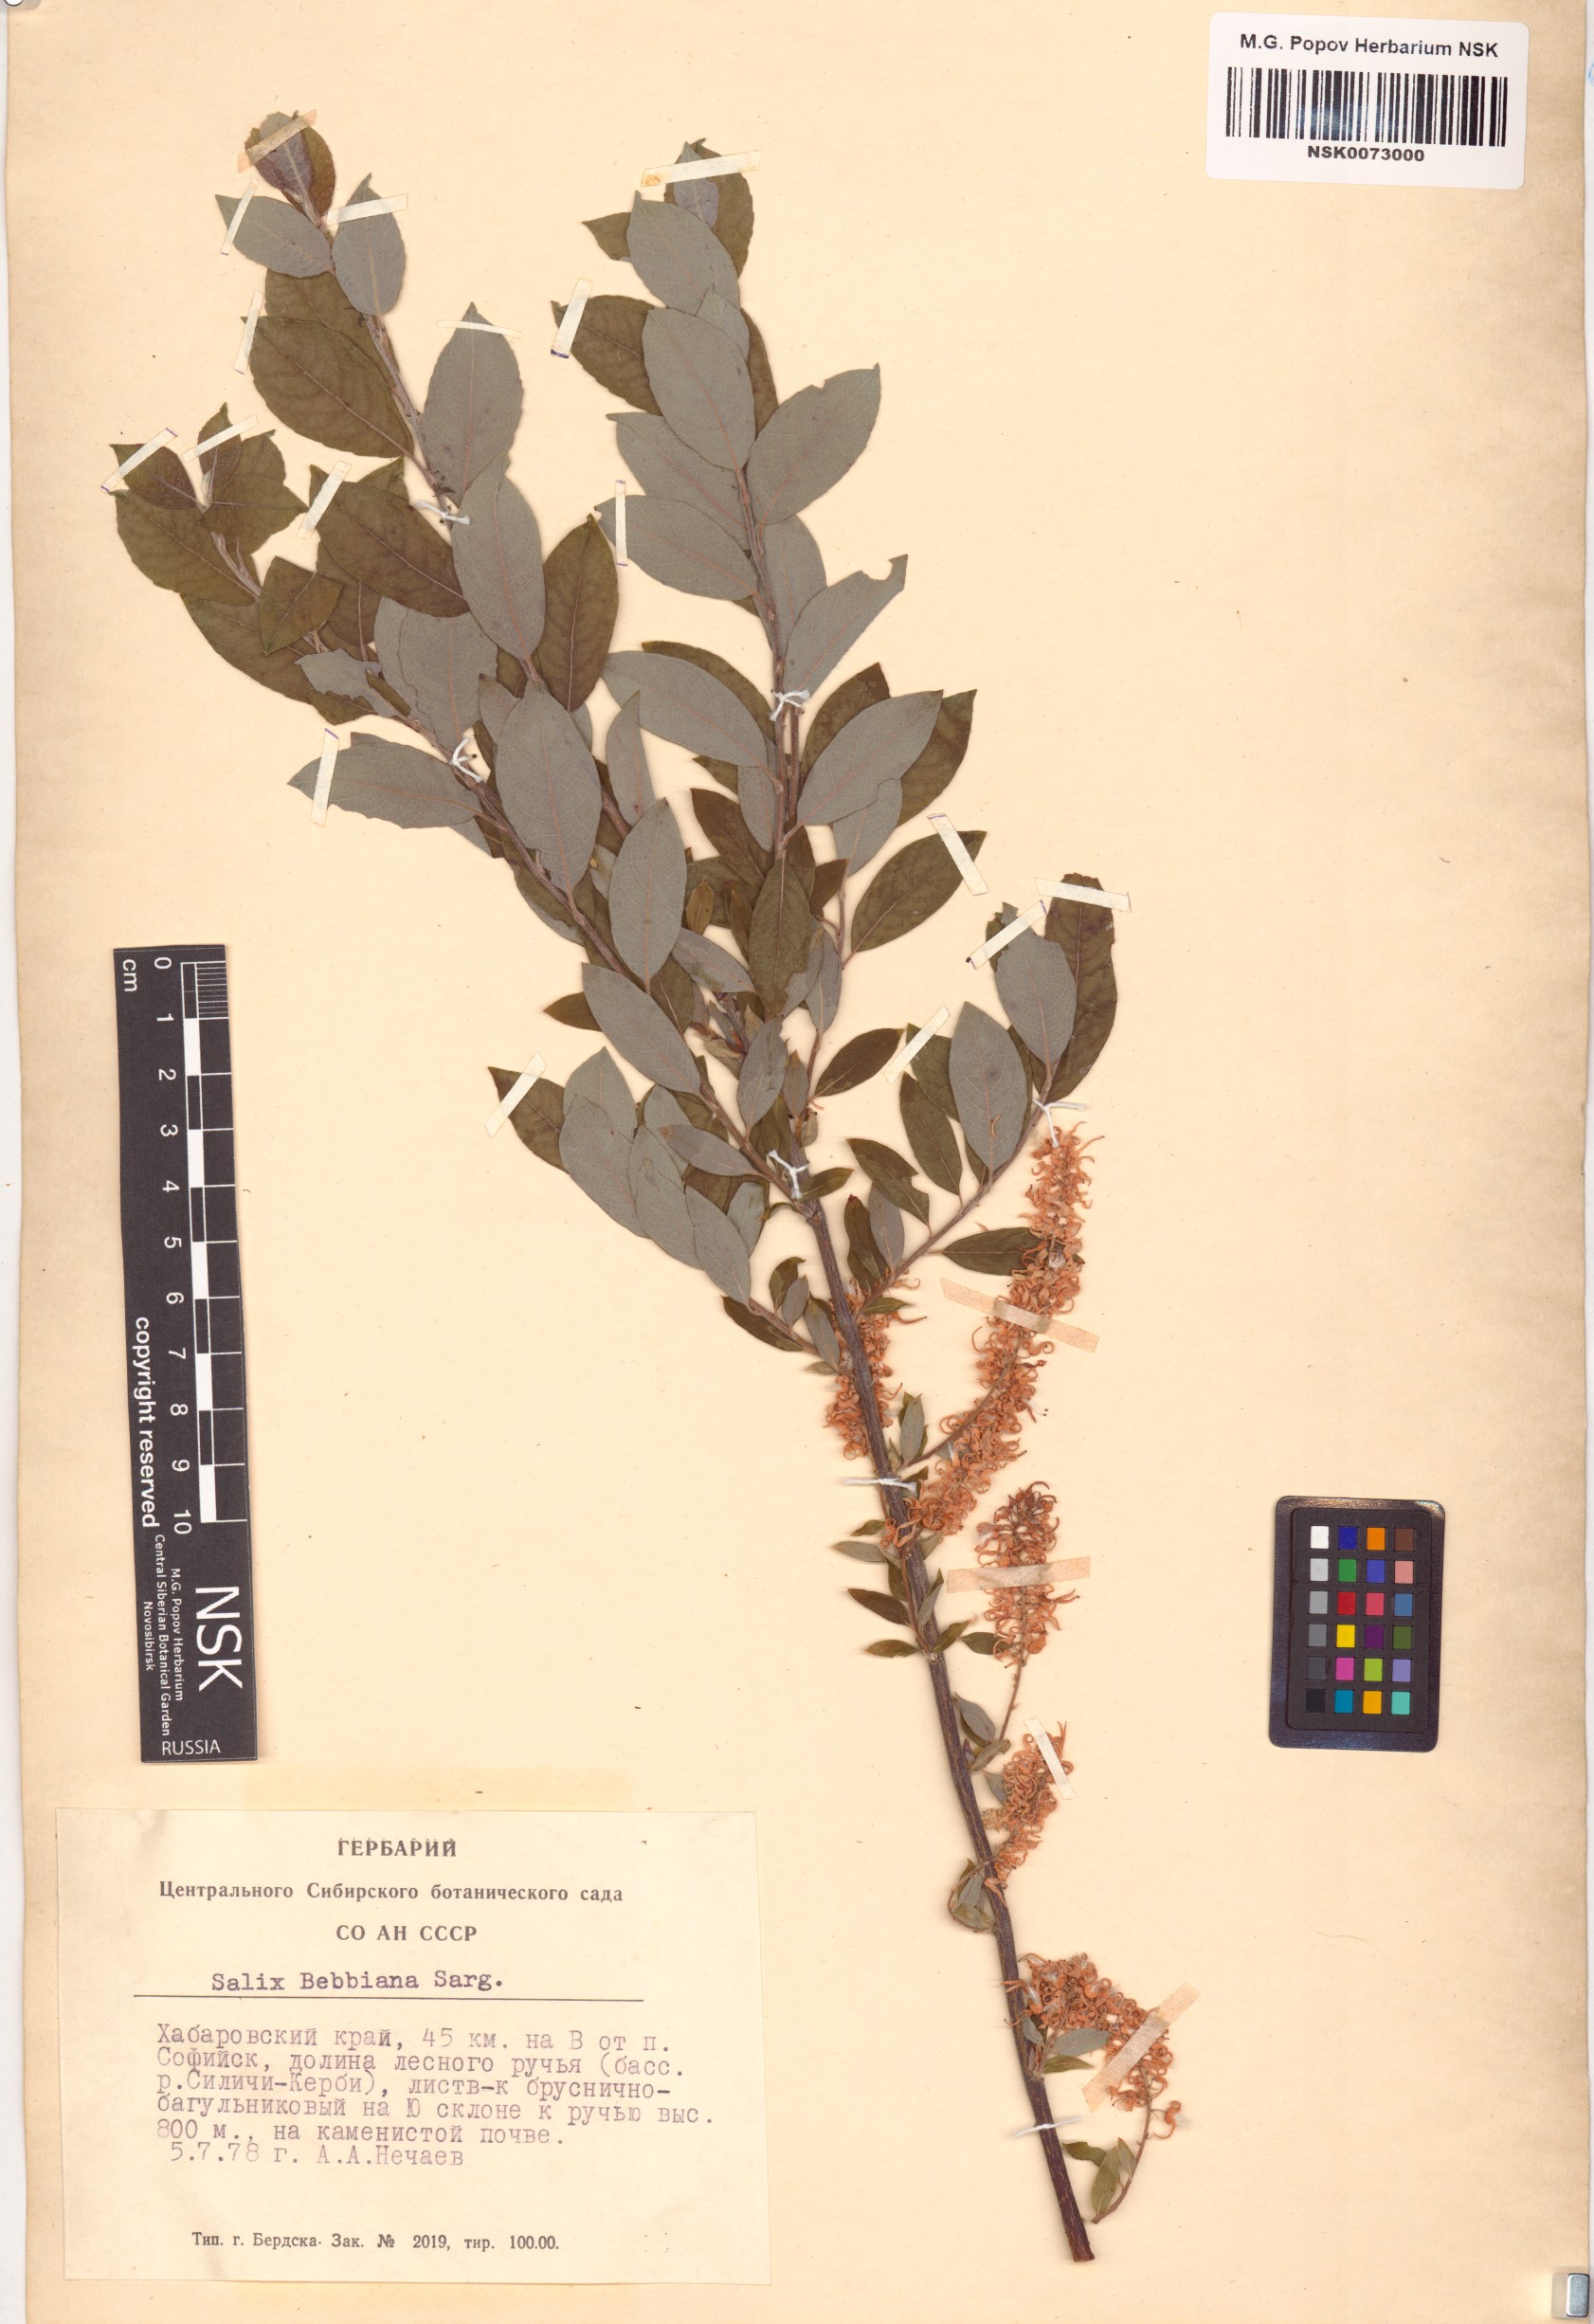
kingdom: Plantae
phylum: Tracheophyta
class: Magnoliopsida
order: Malpighiales
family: Salicaceae
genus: Salix
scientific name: Salix bebbiana
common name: Bebb's willow
